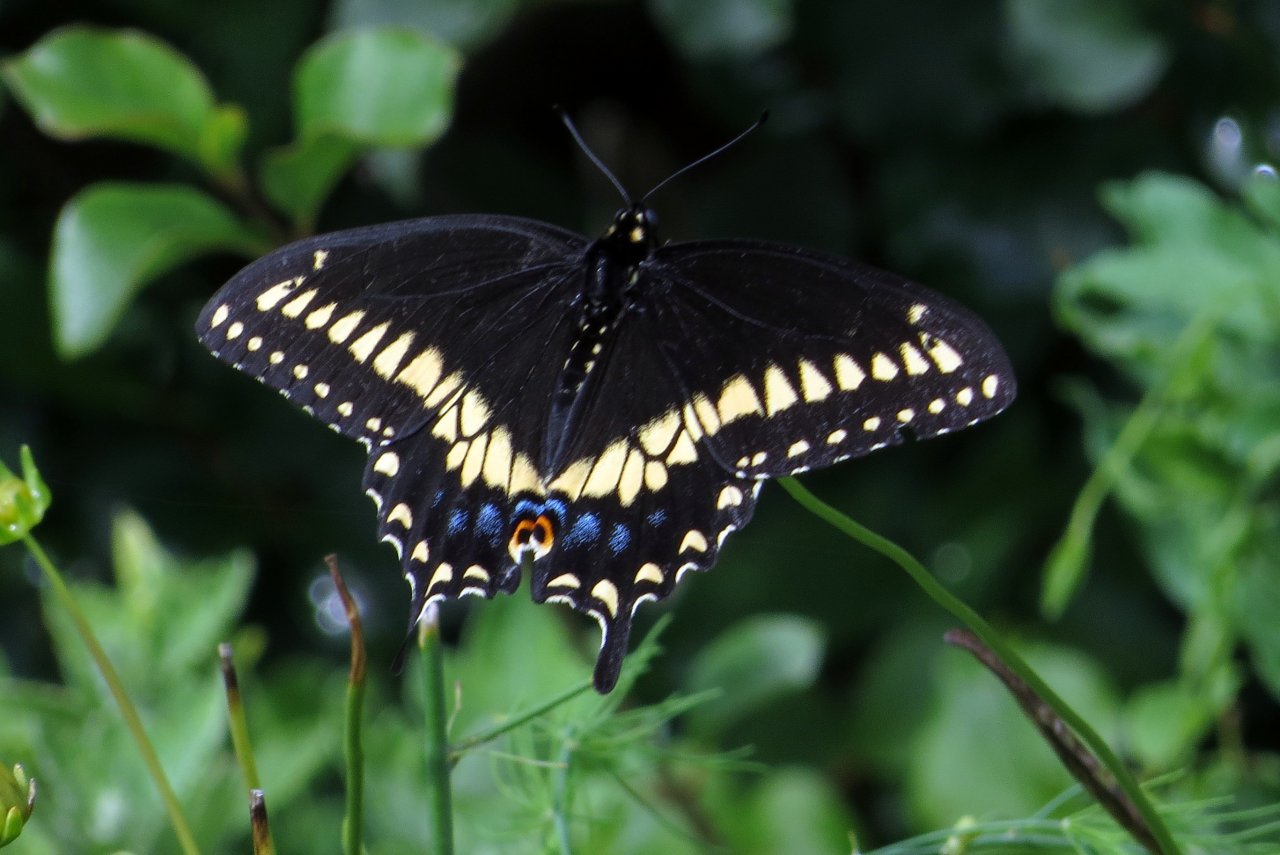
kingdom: Animalia
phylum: Arthropoda
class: Insecta
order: Lepidoptera
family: Papilionidae
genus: Papilio
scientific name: Papilio polyxenes
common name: Black Swallowtail
